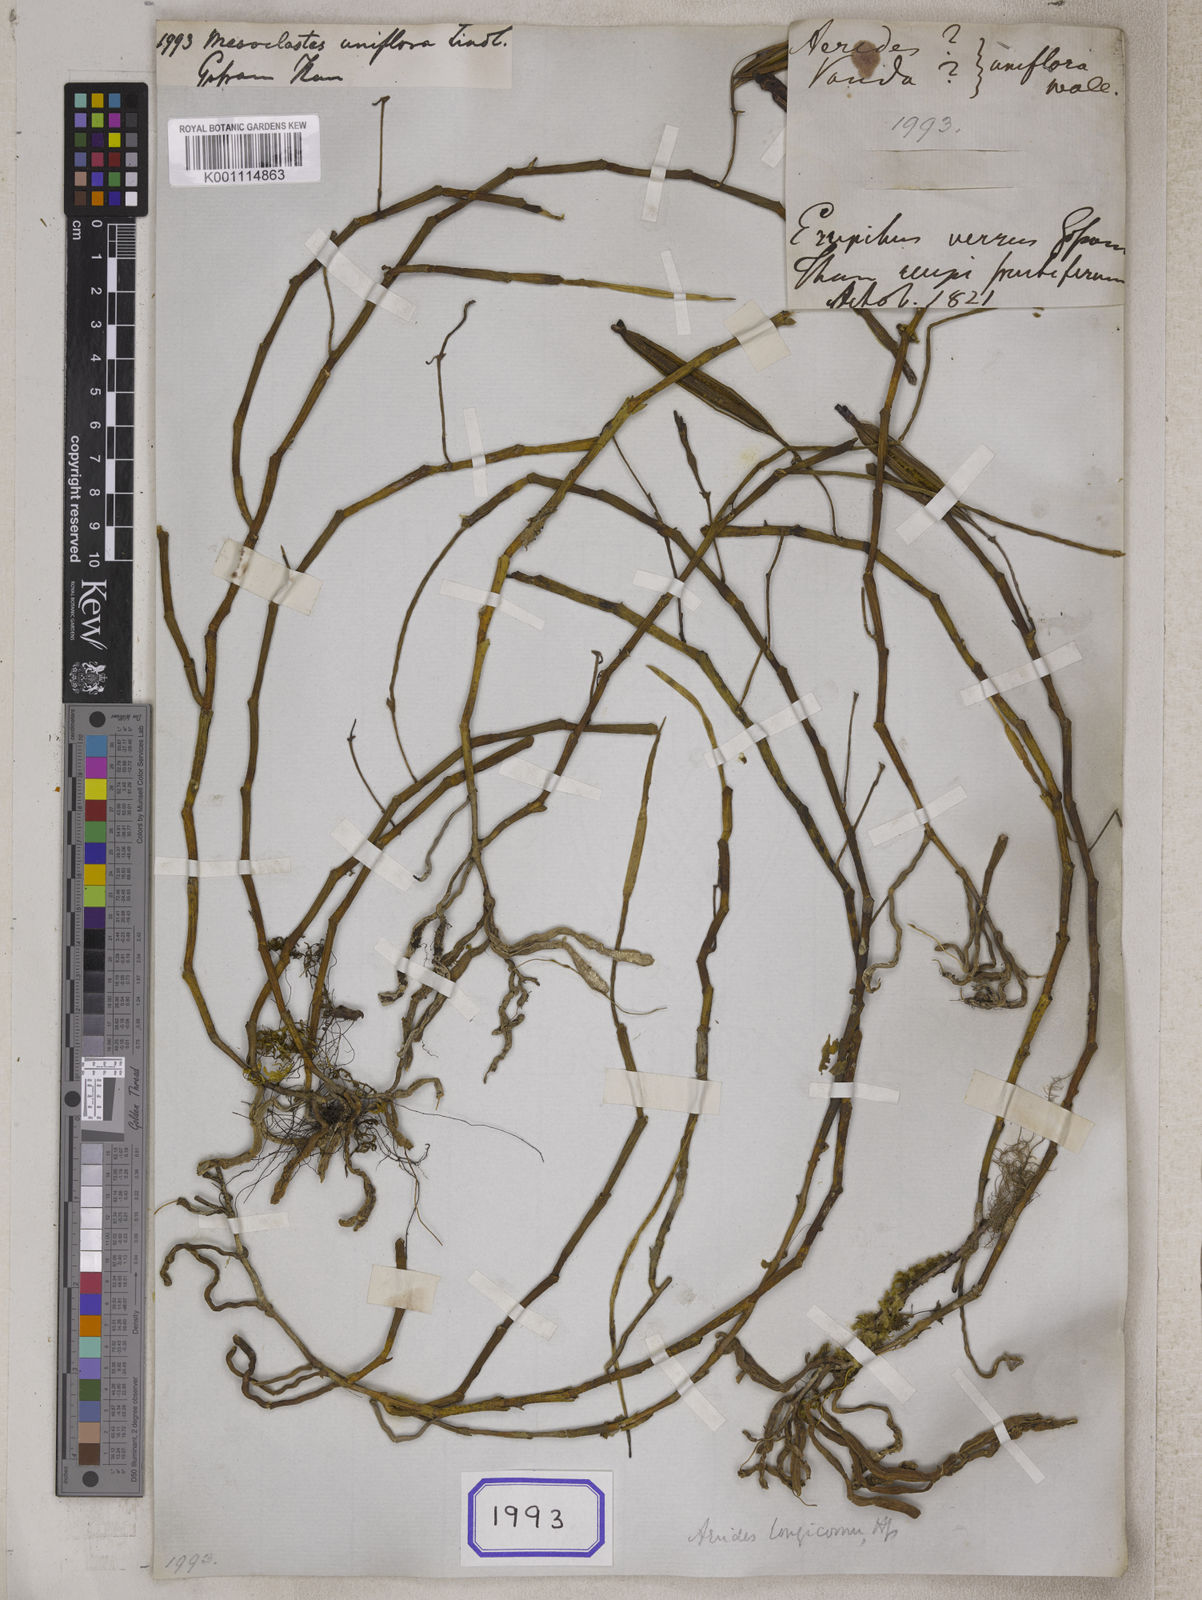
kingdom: Plantae
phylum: Tracheophyta
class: Liliopsida
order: Asparagales
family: Orchidaceae
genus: Papilionanthe
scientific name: Papilionanthe uniflora
